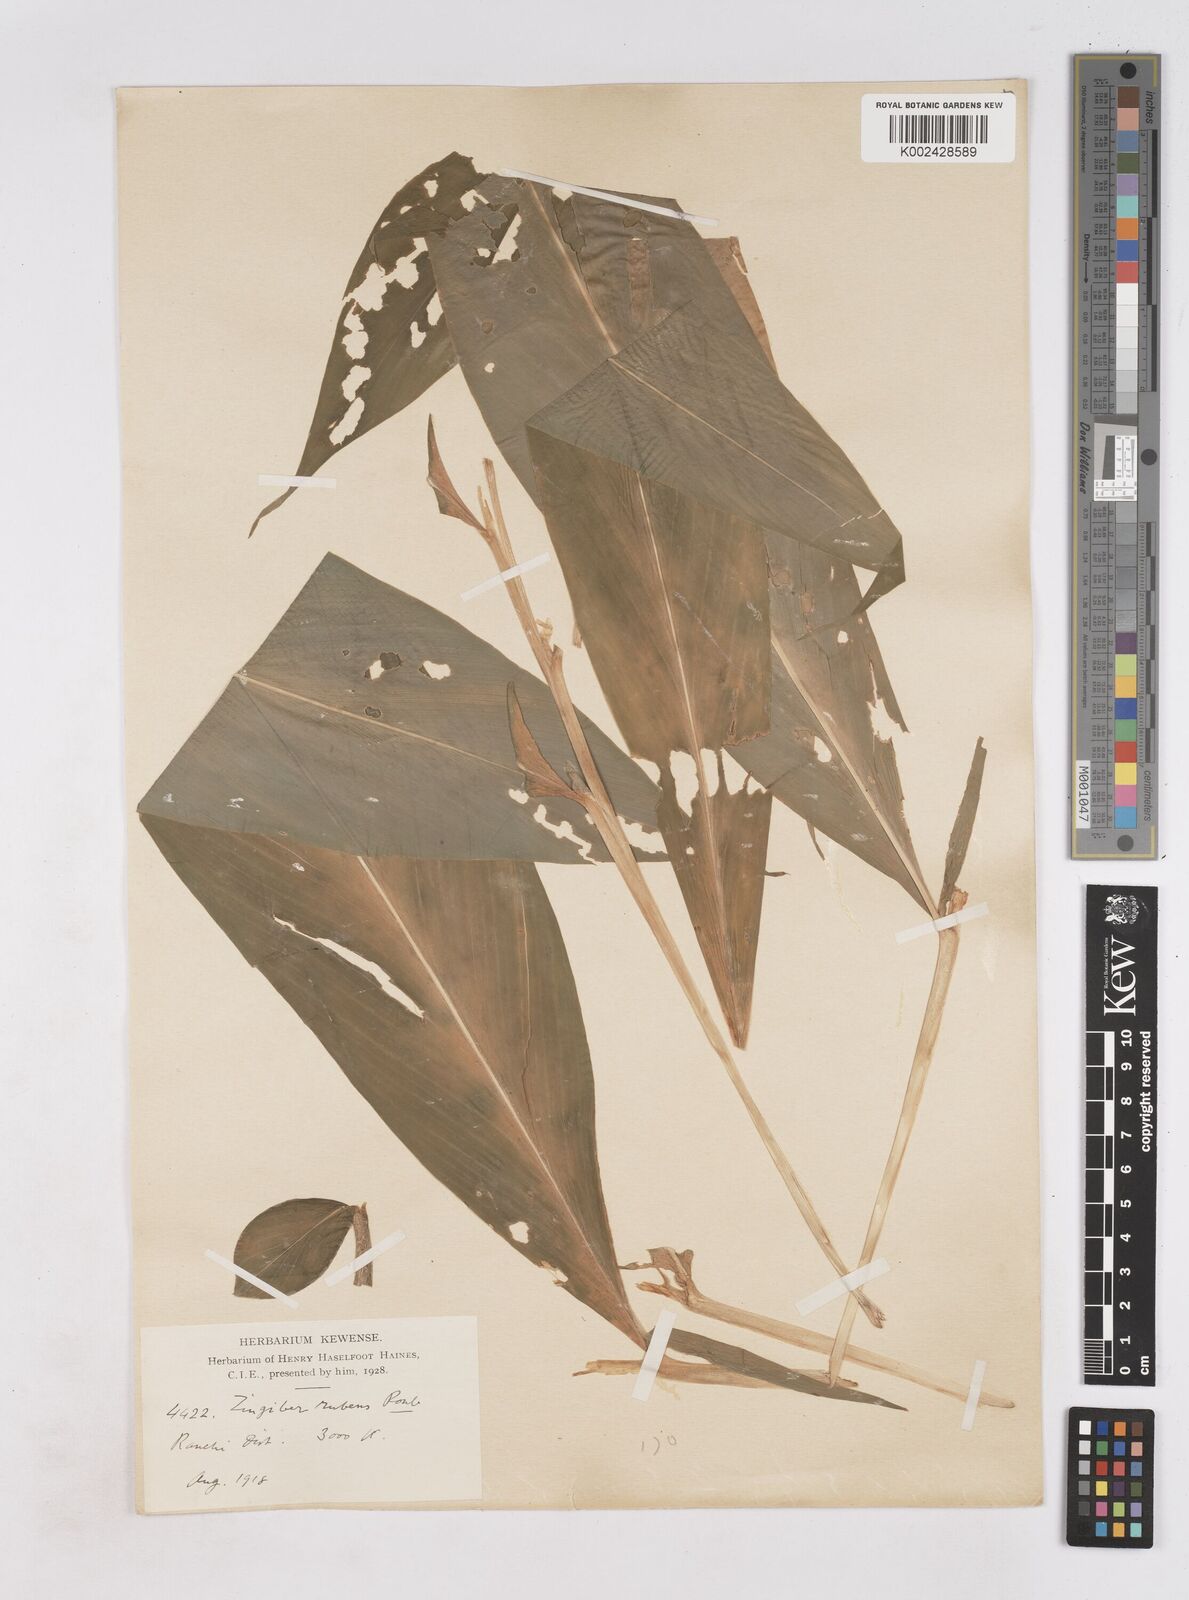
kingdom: Plantae
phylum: Tracheophyta
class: Liliopsida
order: Zingiberales
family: Zingiberaceae
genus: Zingiber
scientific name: Zingiber rubens
